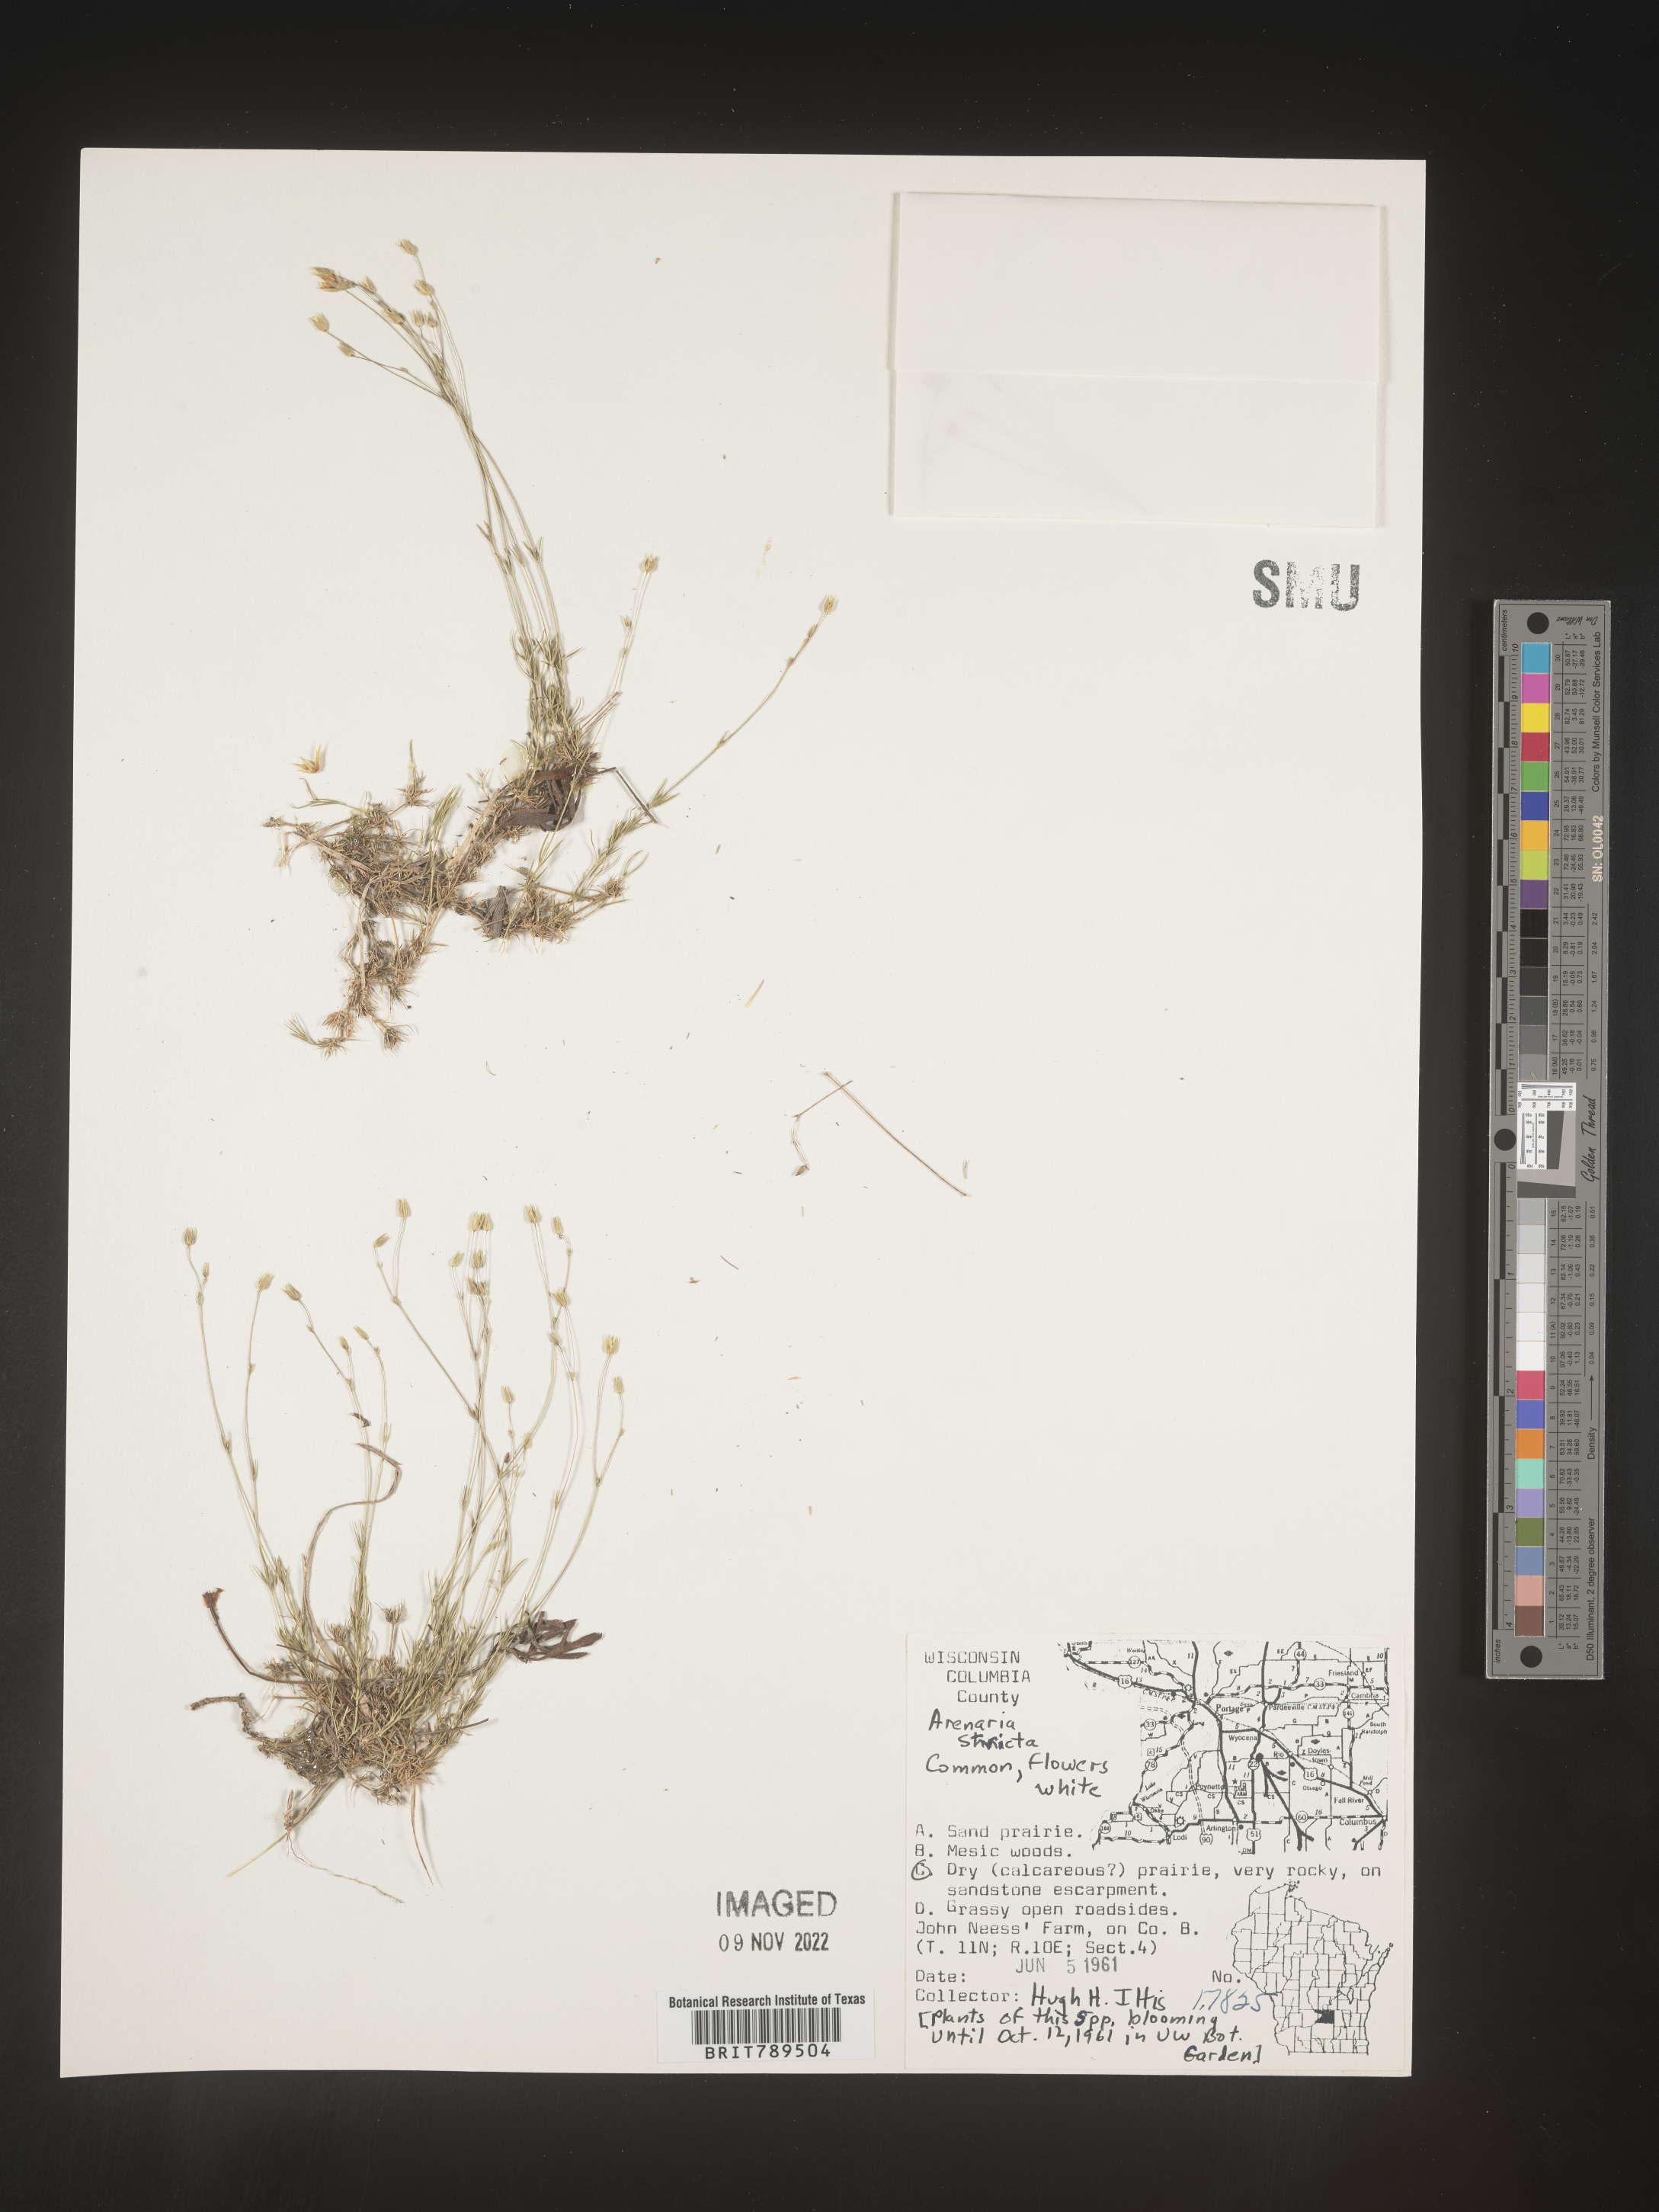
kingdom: Plantae
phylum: Tracheophyta
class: Magnoliopsida
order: Caryophyllales
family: Caryophyllaceae
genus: Sabulina
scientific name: Sabulina michauxii
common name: Michaux's stitchwort
